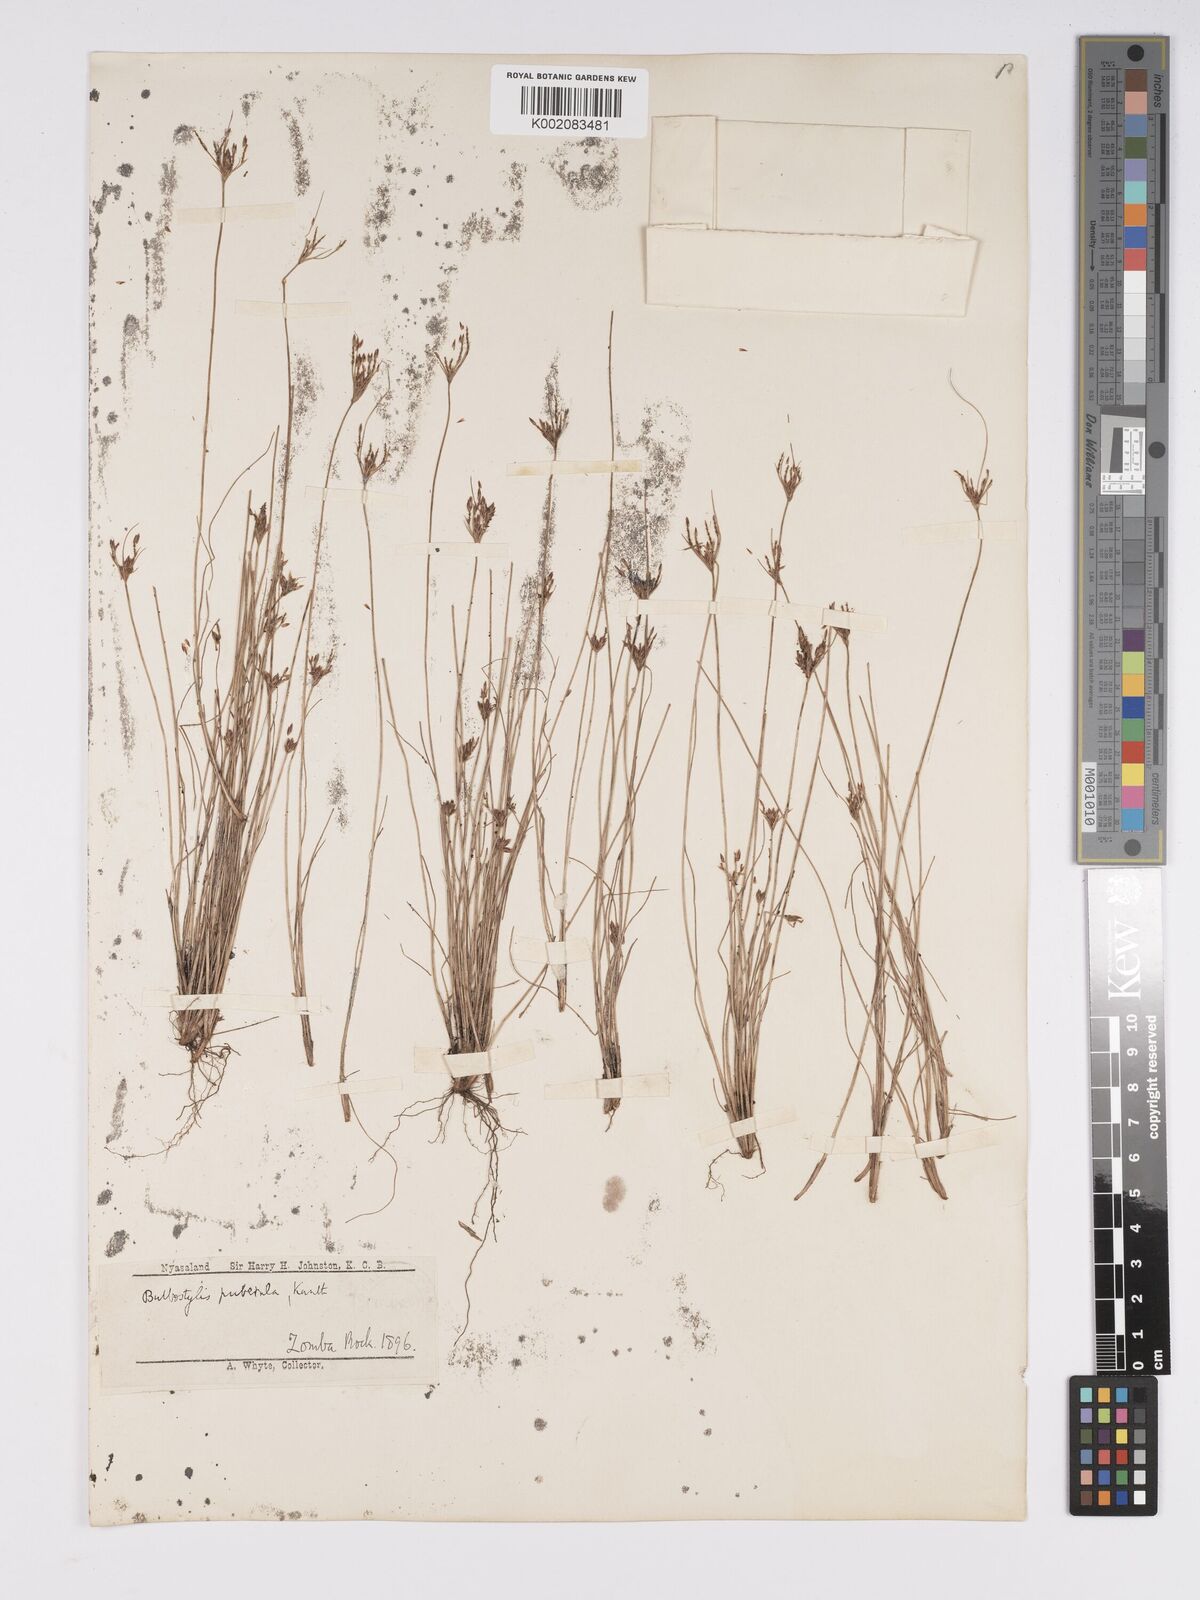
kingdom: Plantae
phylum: Tracheophyta
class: Liliopsida
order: Poales
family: Cyperaceae
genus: Bulbostylis
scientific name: Bulbostylis thouarsii
